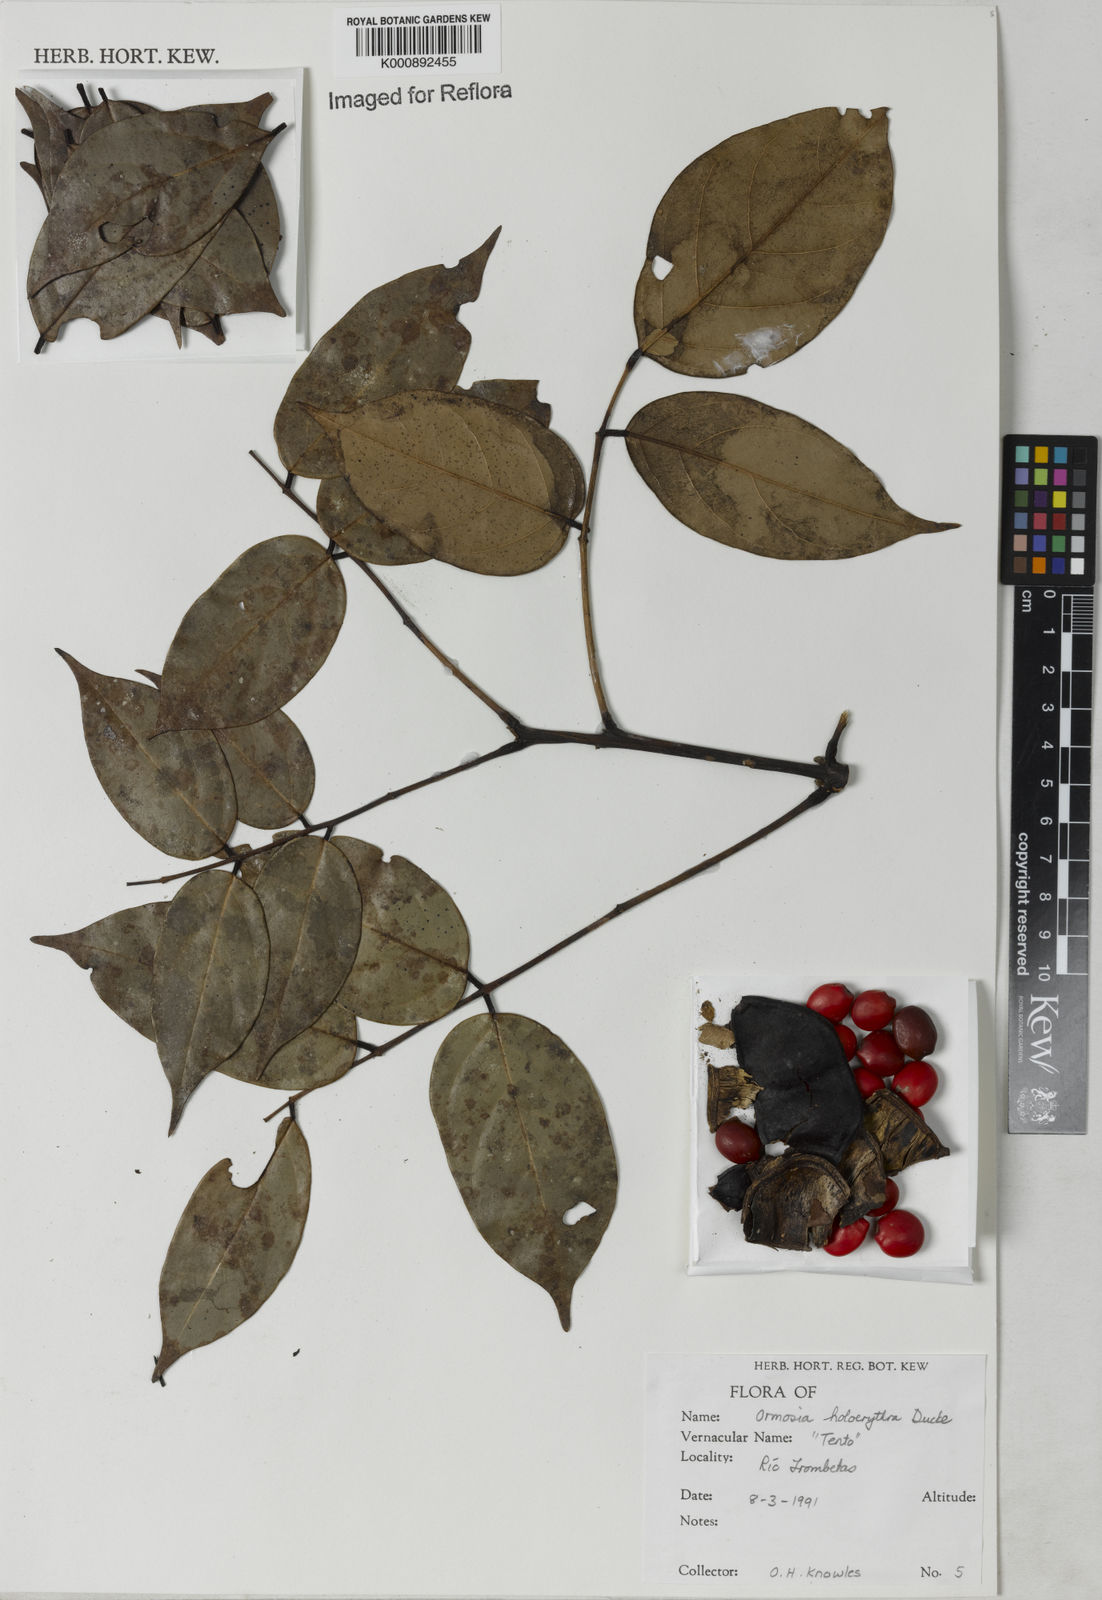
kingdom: Plantae
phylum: Tracheophyta
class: Magnoliopsida
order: Fabales
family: Fabaceae
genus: Ormosia
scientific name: Ormosia holerythra
